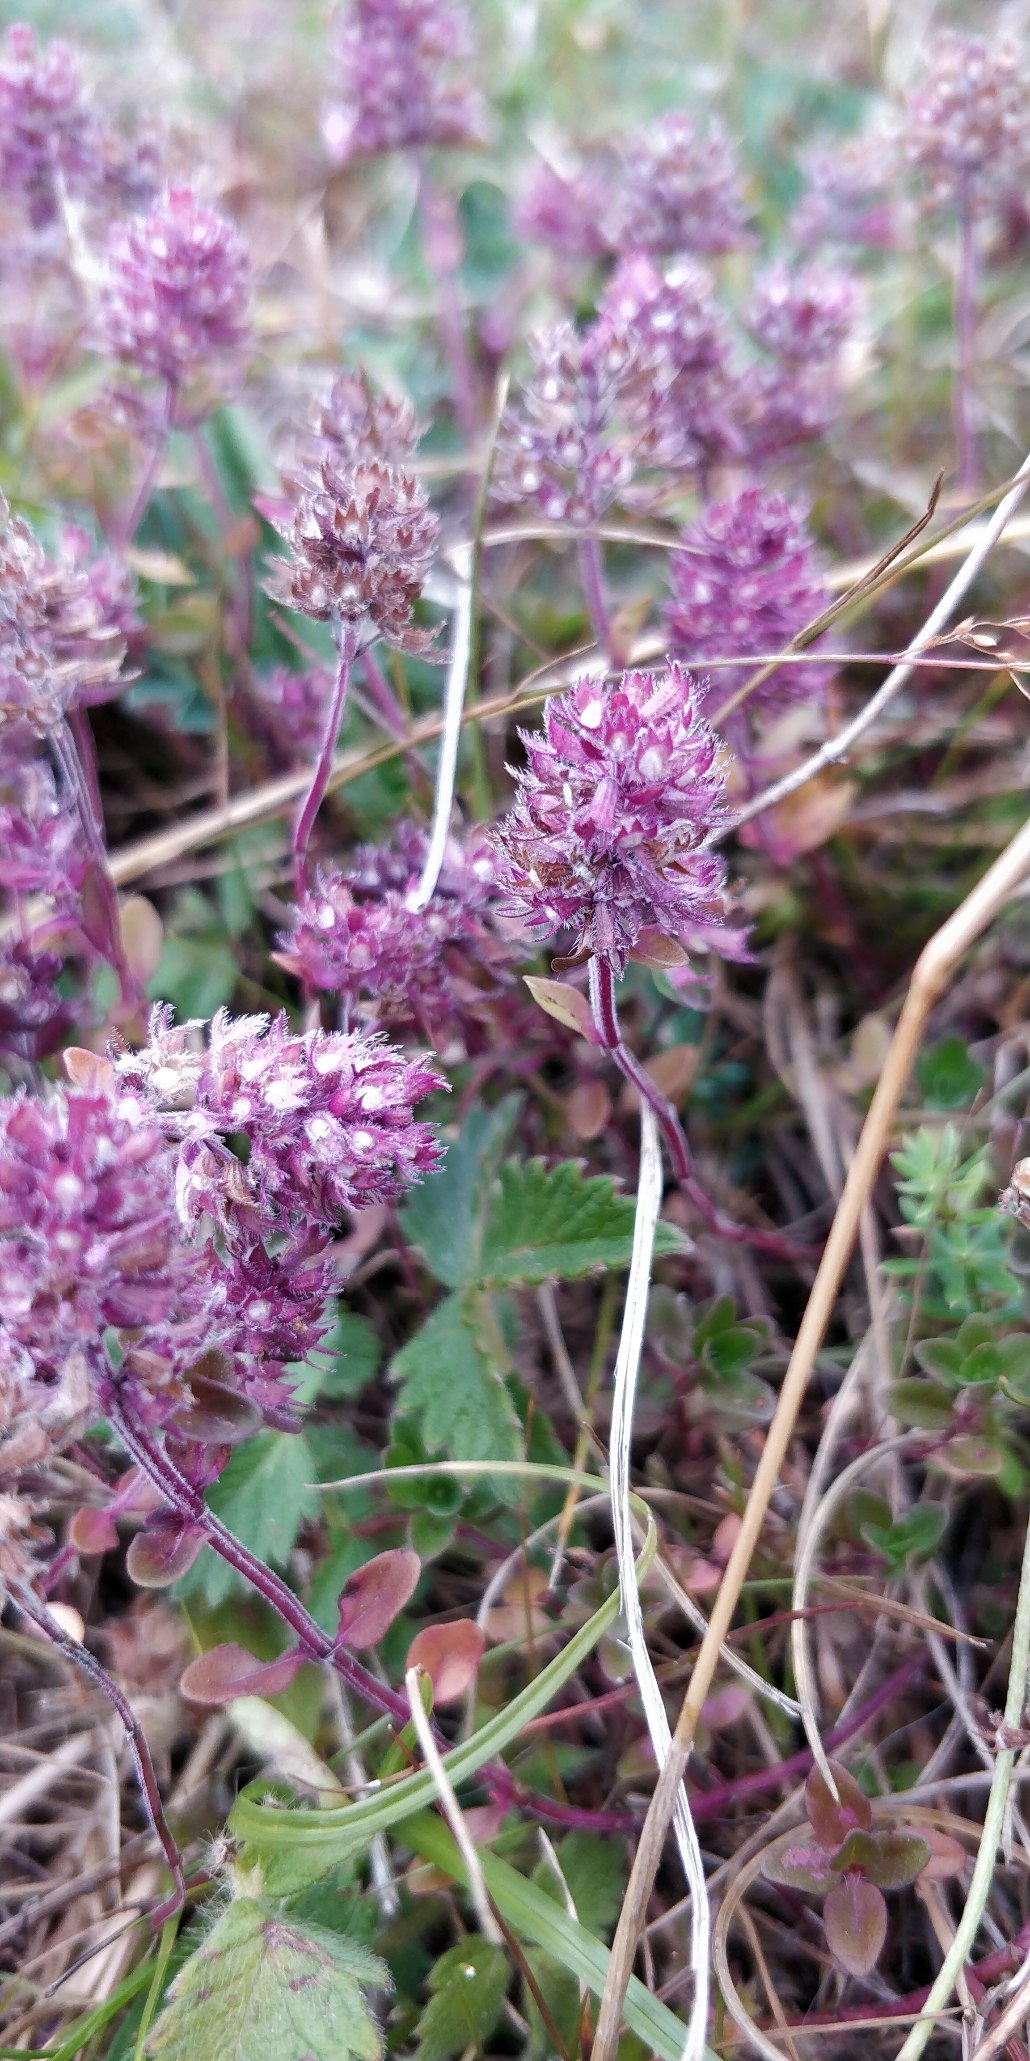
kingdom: Plantae
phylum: Tracheophyta
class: Magnoliopsida
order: Lamiales
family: Lamiaceae
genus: Thymus
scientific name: Thymus pulegioides
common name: Bredbladet timian
